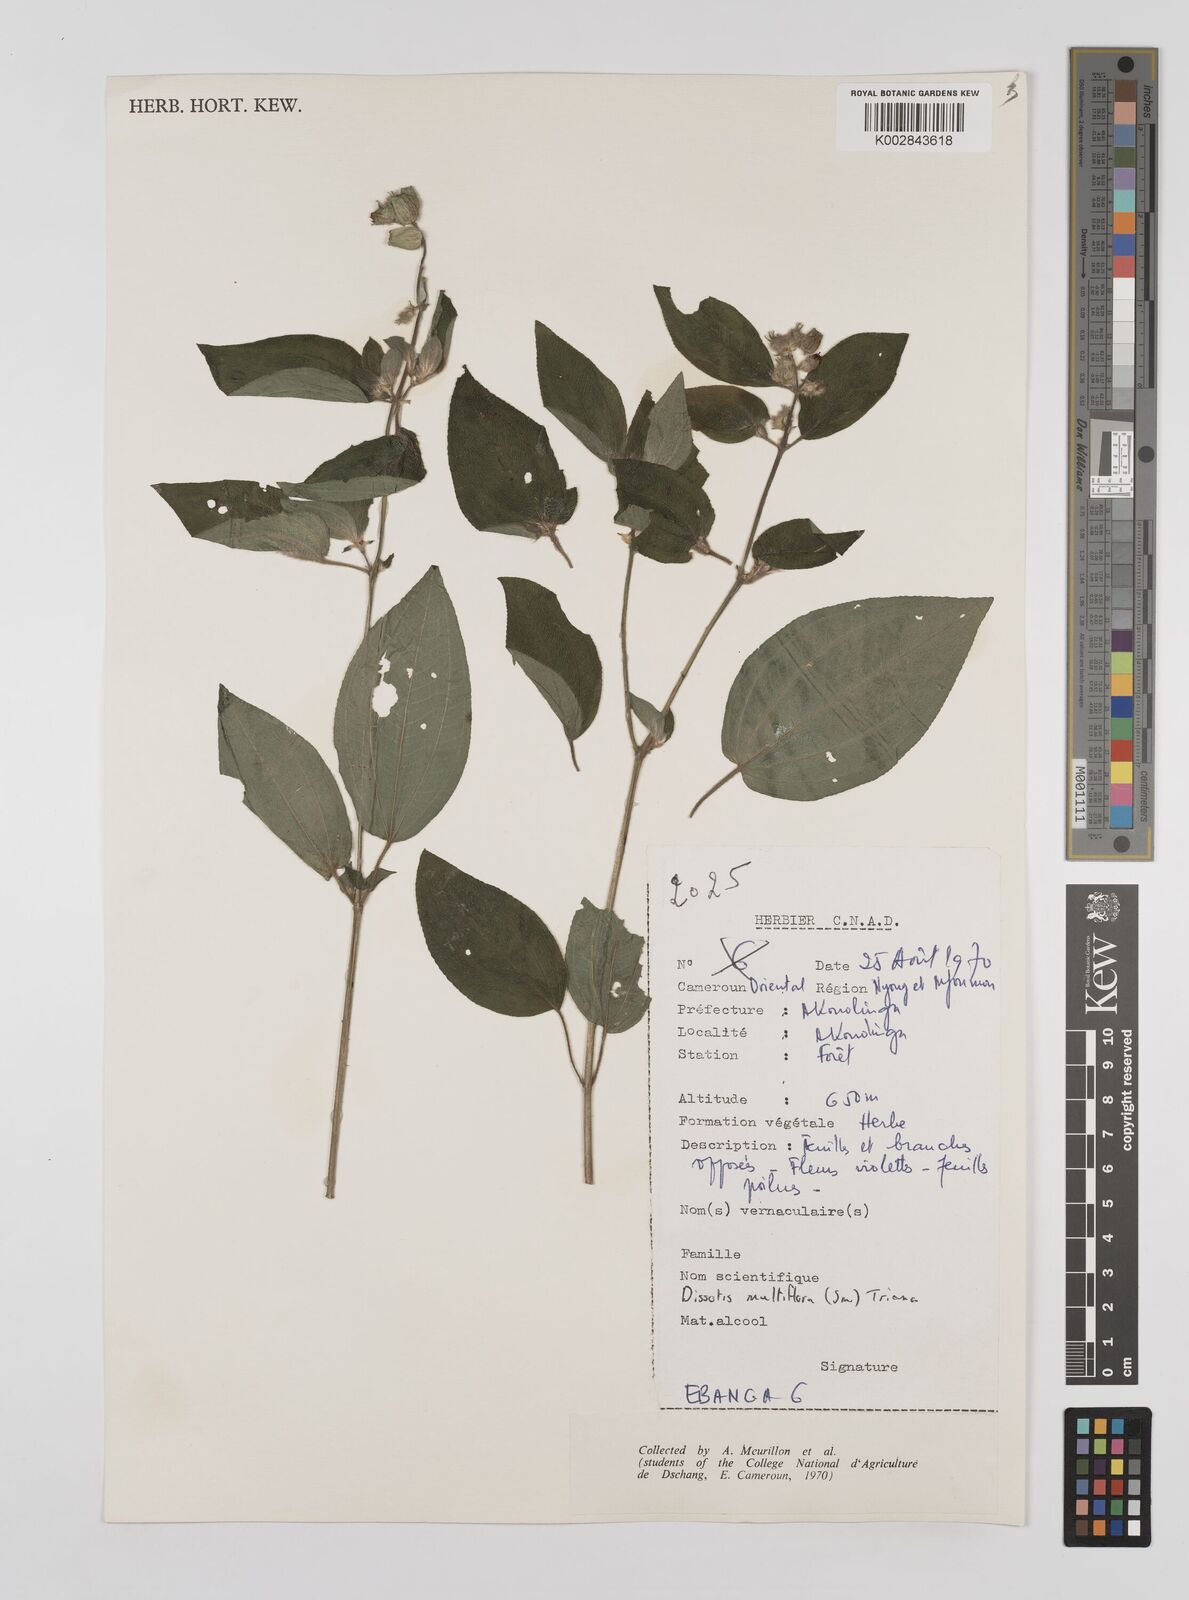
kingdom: Plantae
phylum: Tracheophyta
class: Magnoliopsida
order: Myrtales
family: Melastomataceae
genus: Dupineta
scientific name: Dupineta multiflora
